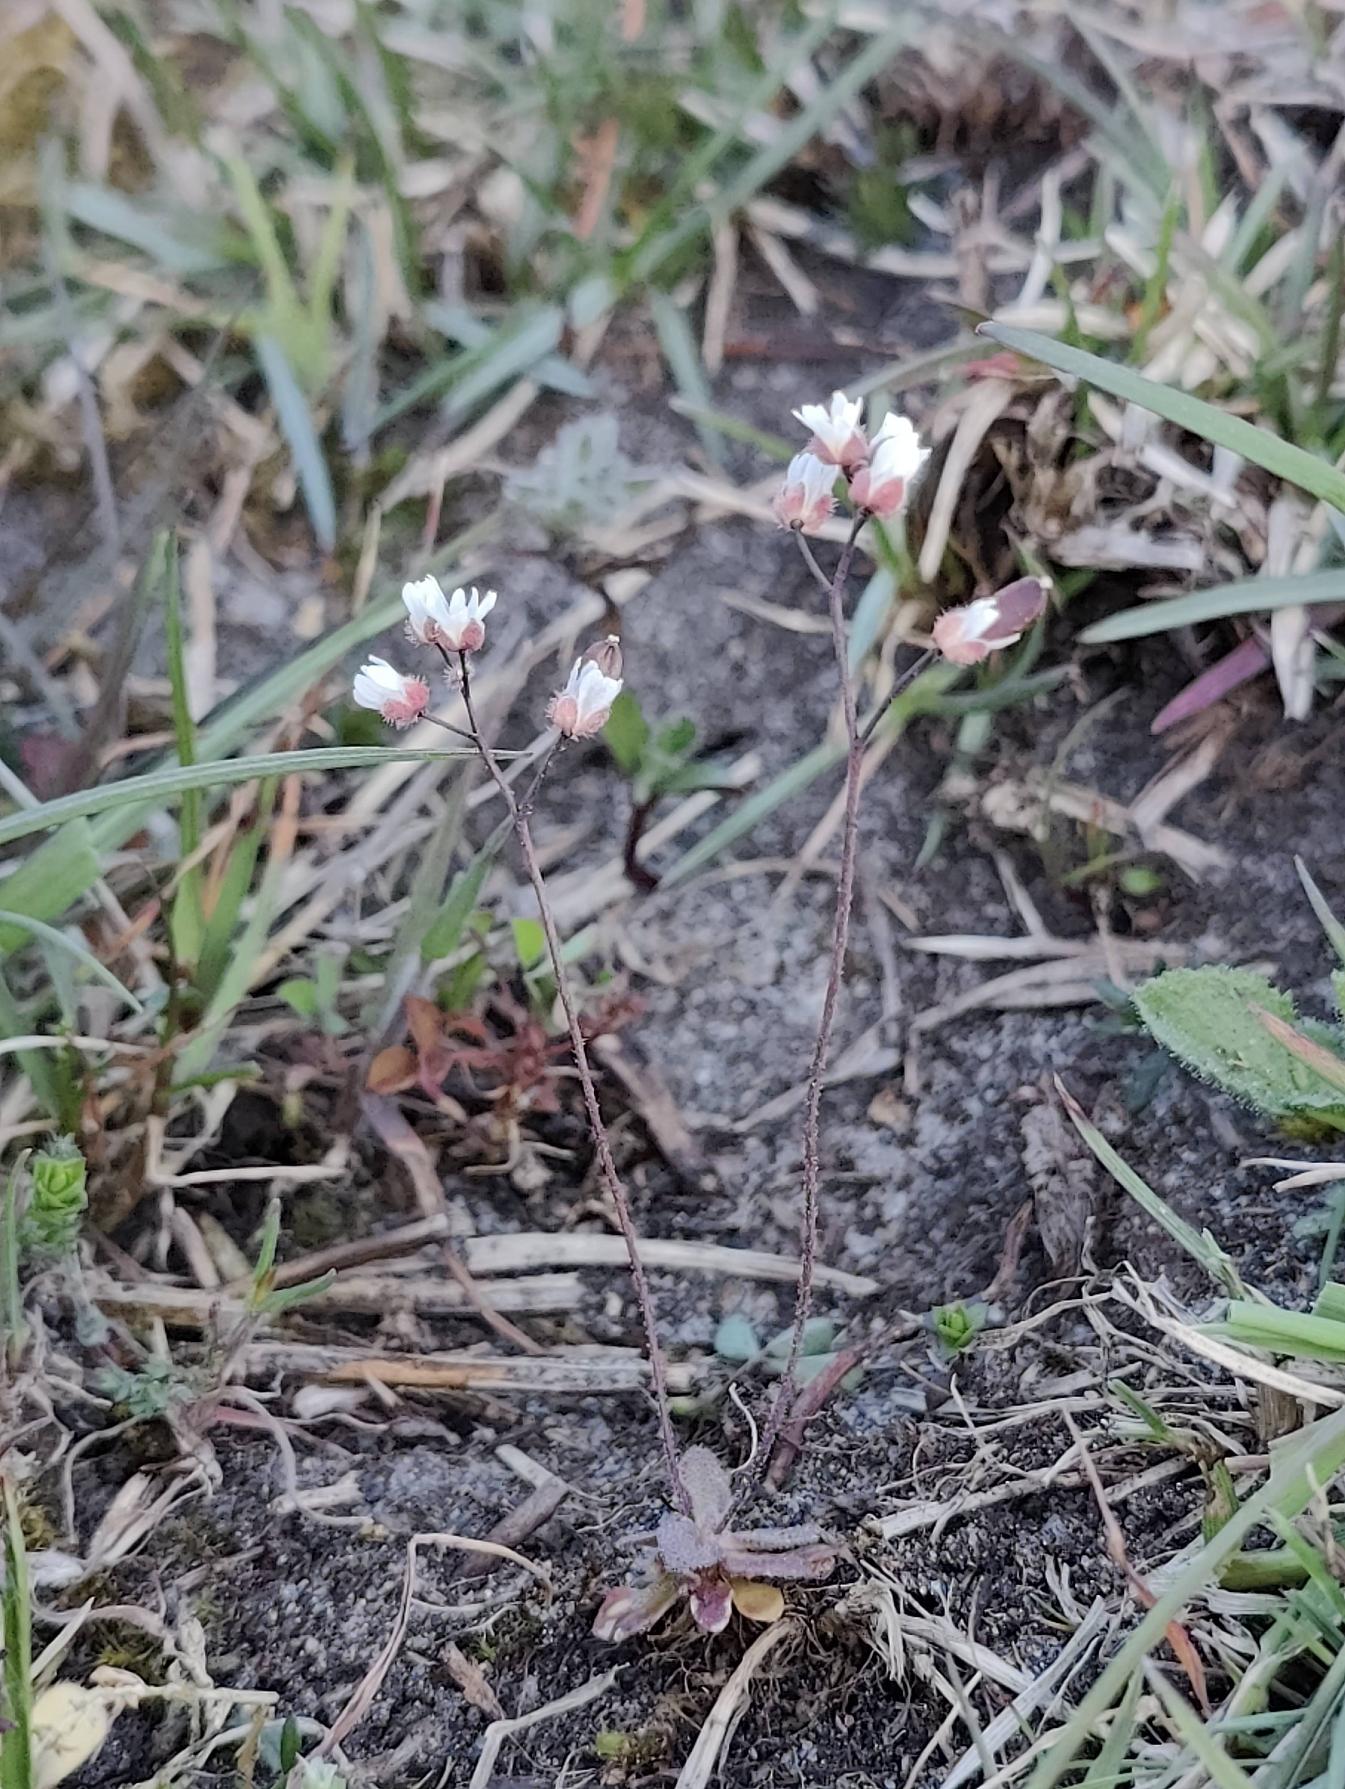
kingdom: Plantae
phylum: Tracheophyta
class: Magnoliopsida
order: Brassicales
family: Brassicaceae
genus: Draba
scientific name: Draba verna
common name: Vår-gæslingeblomst
